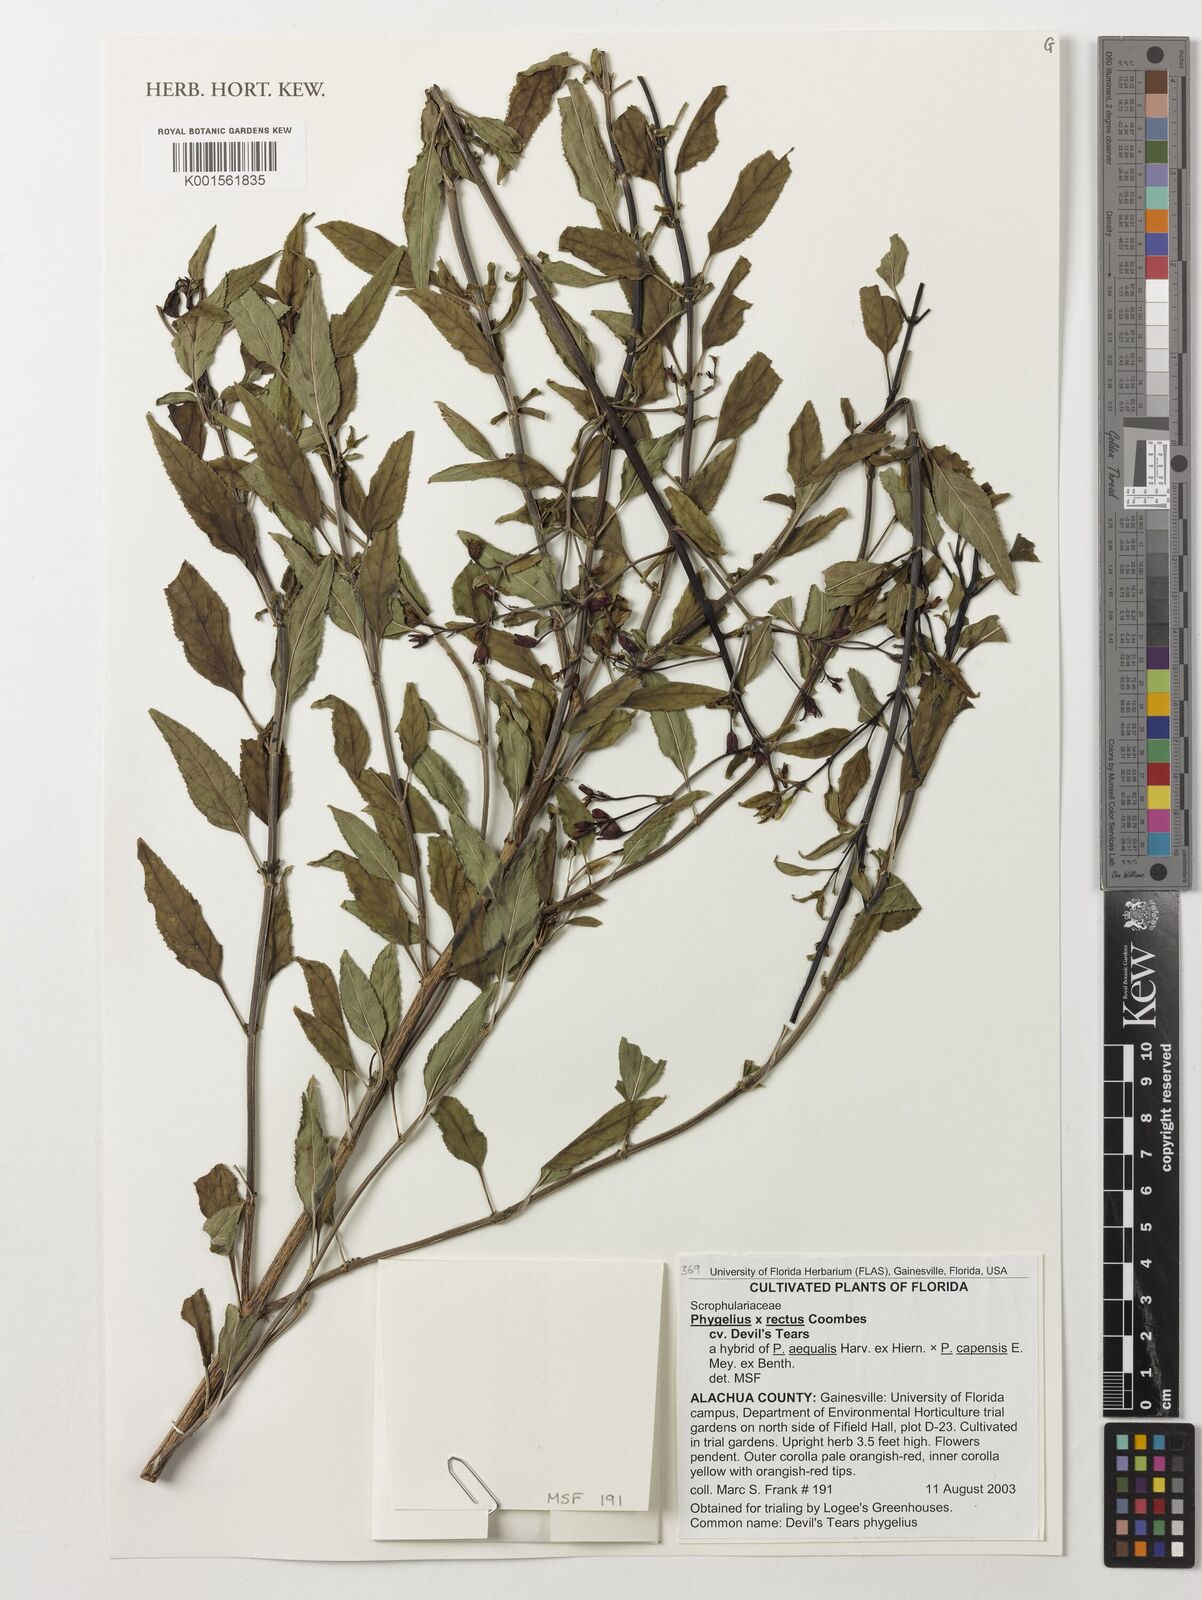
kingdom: Plantae
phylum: Tracheophyta
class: Magnoliopsida
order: Lamiales
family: Scrophulariaceae
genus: Phygelius
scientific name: Phygelius
